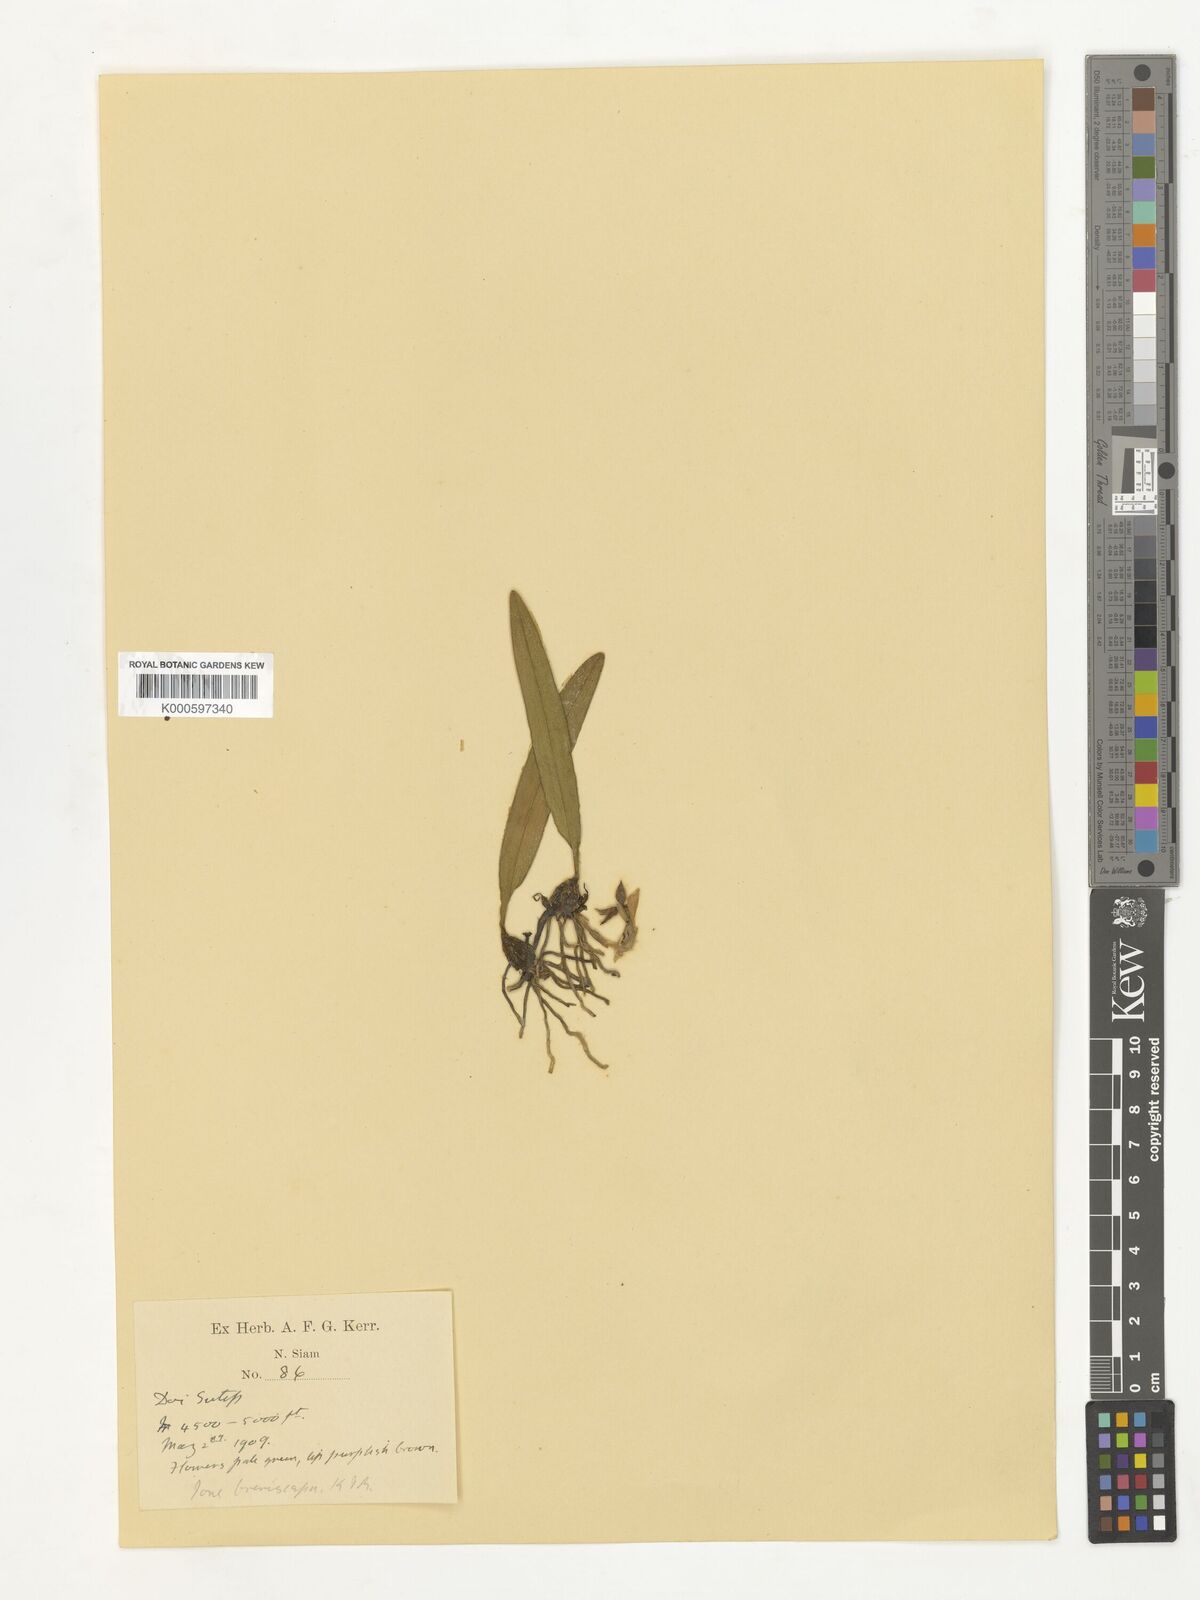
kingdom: Plantae
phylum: Tracheophyta
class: Liliopsida
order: Asparagales
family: Orchidaceae
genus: Bulbophyllum
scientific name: Bulbophyllum bifurcatoflorens
